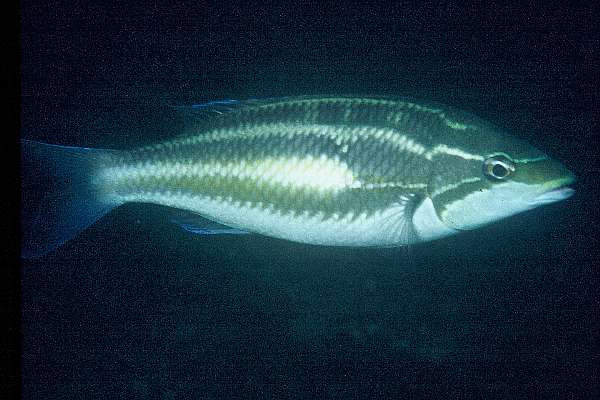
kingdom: Animalia
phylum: Chordata
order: Perciformes
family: Nemipteridae
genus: Pentapodus
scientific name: Pentapodus trivittatus
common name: Three-striped whiptail
